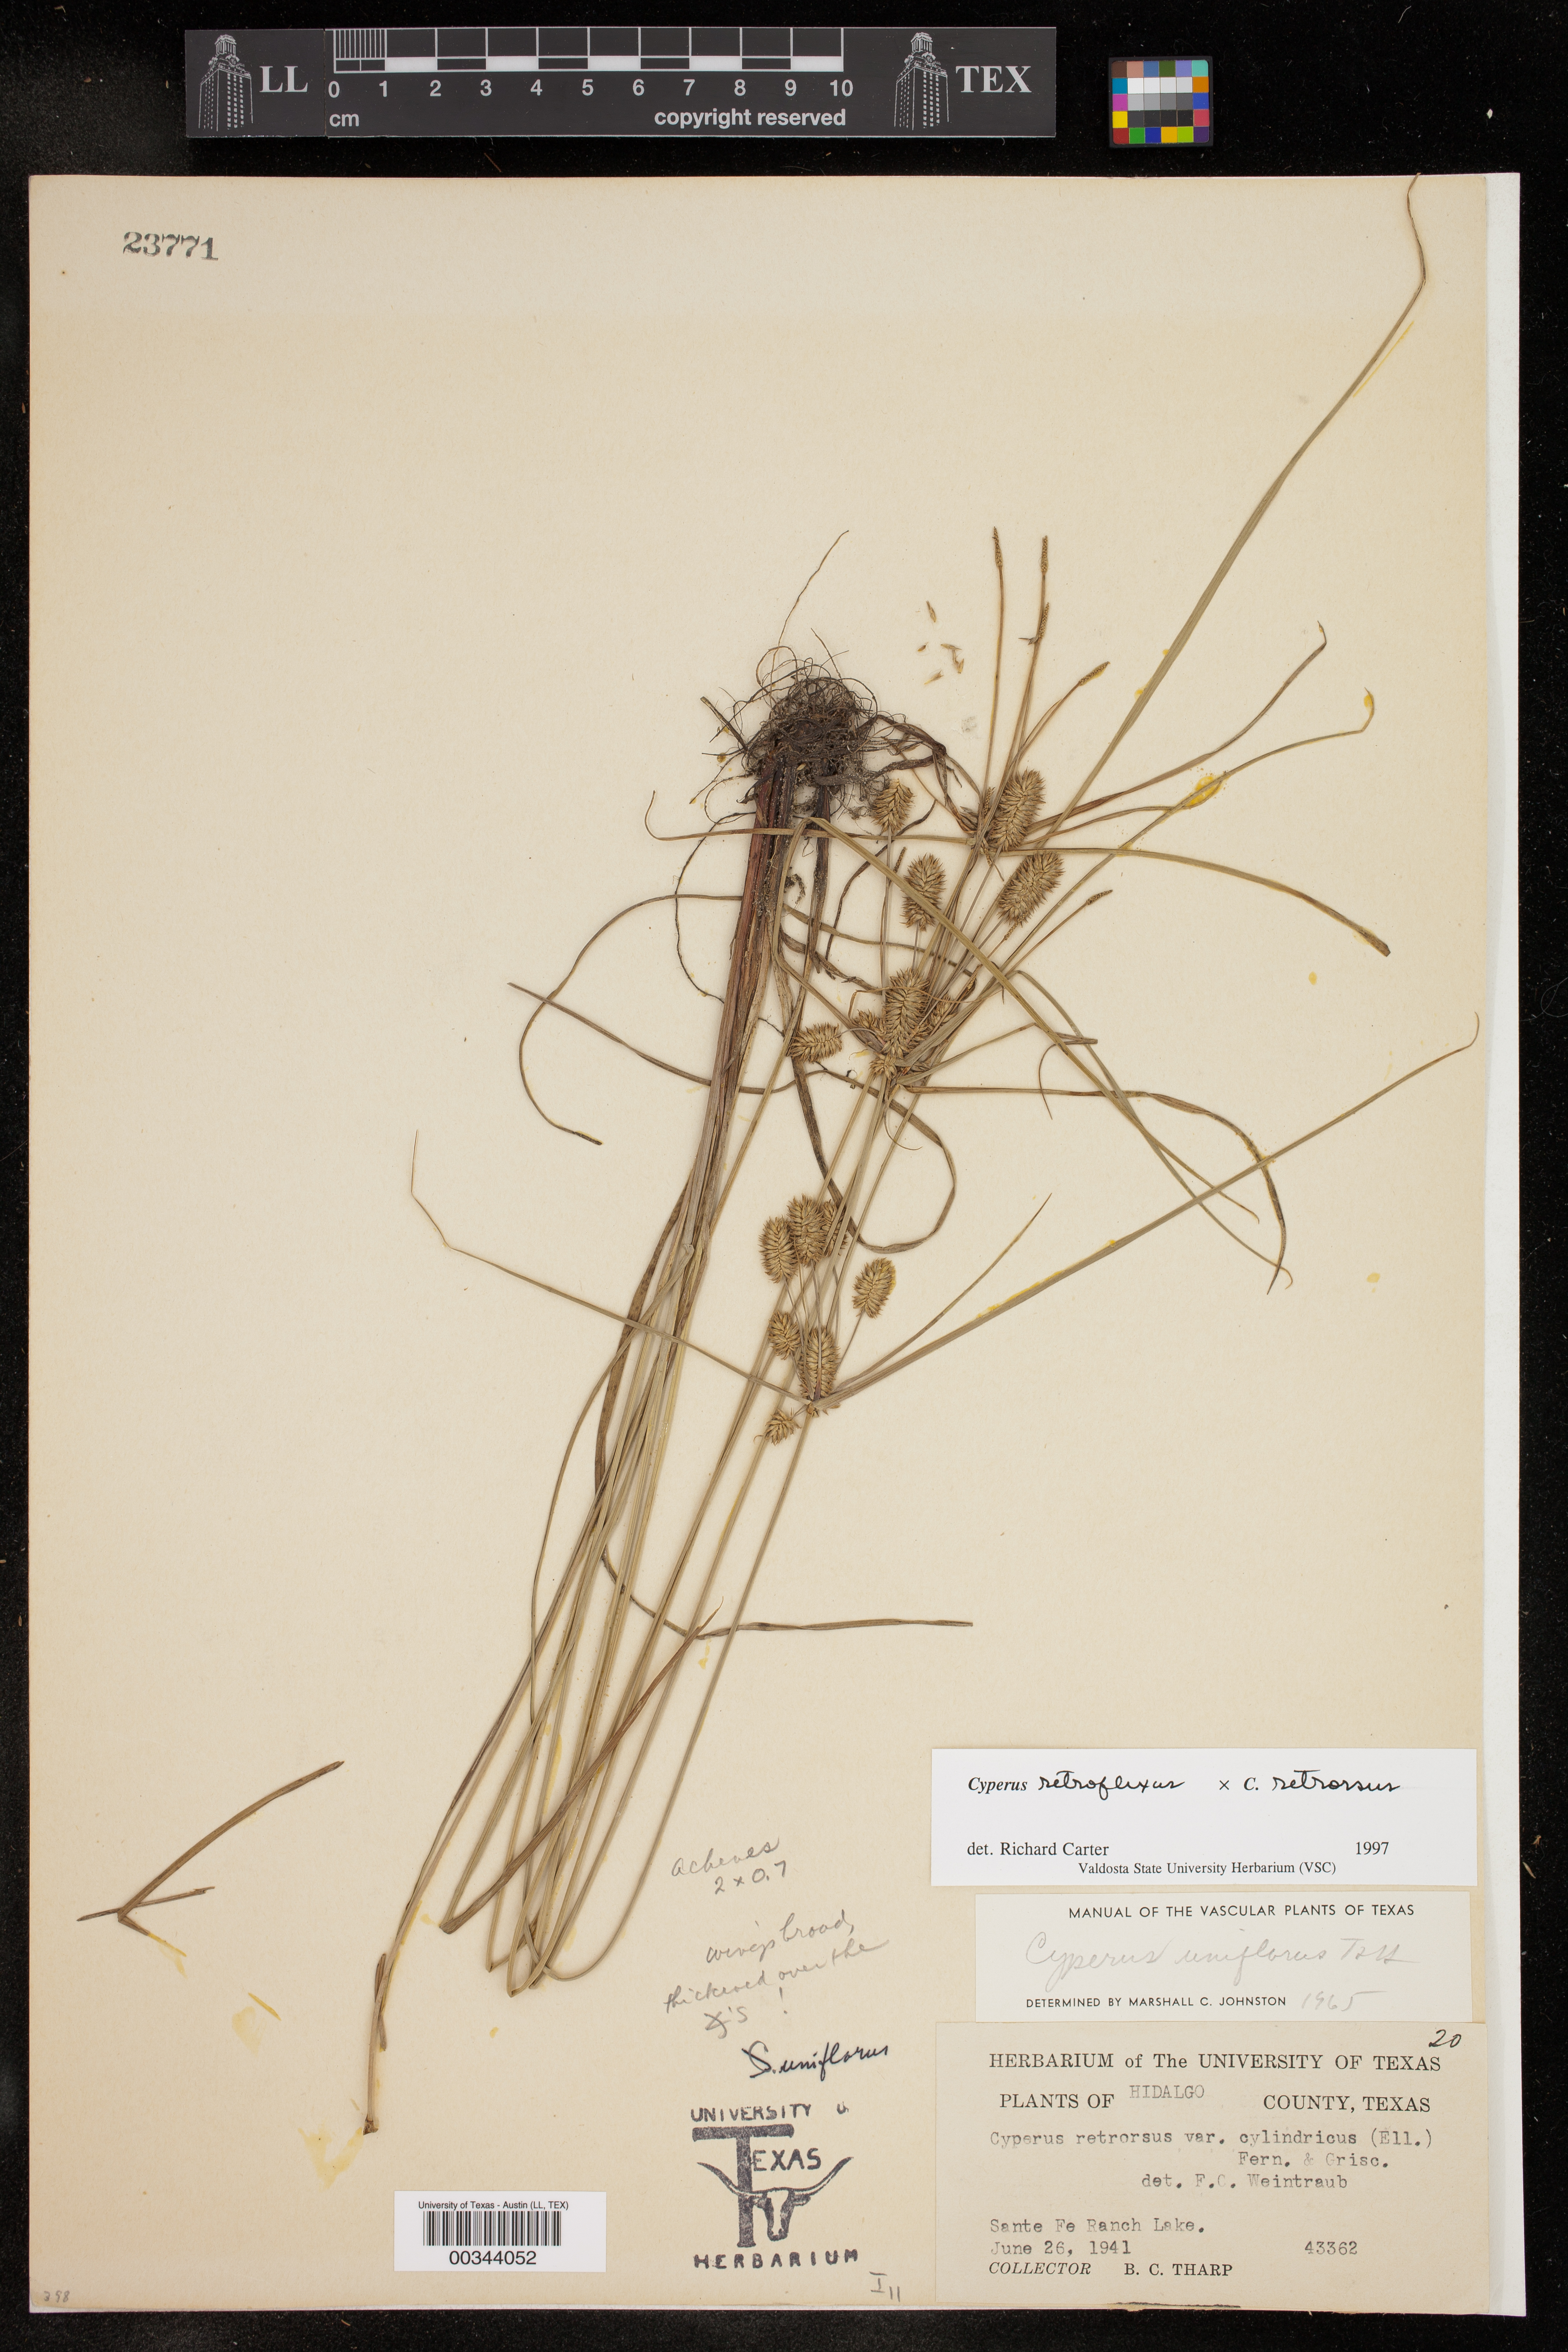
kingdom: Plantae
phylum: Tracheophyta
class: Liliopsida
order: Poales
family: Cyperaceae
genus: Cyperus
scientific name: Cyperus
